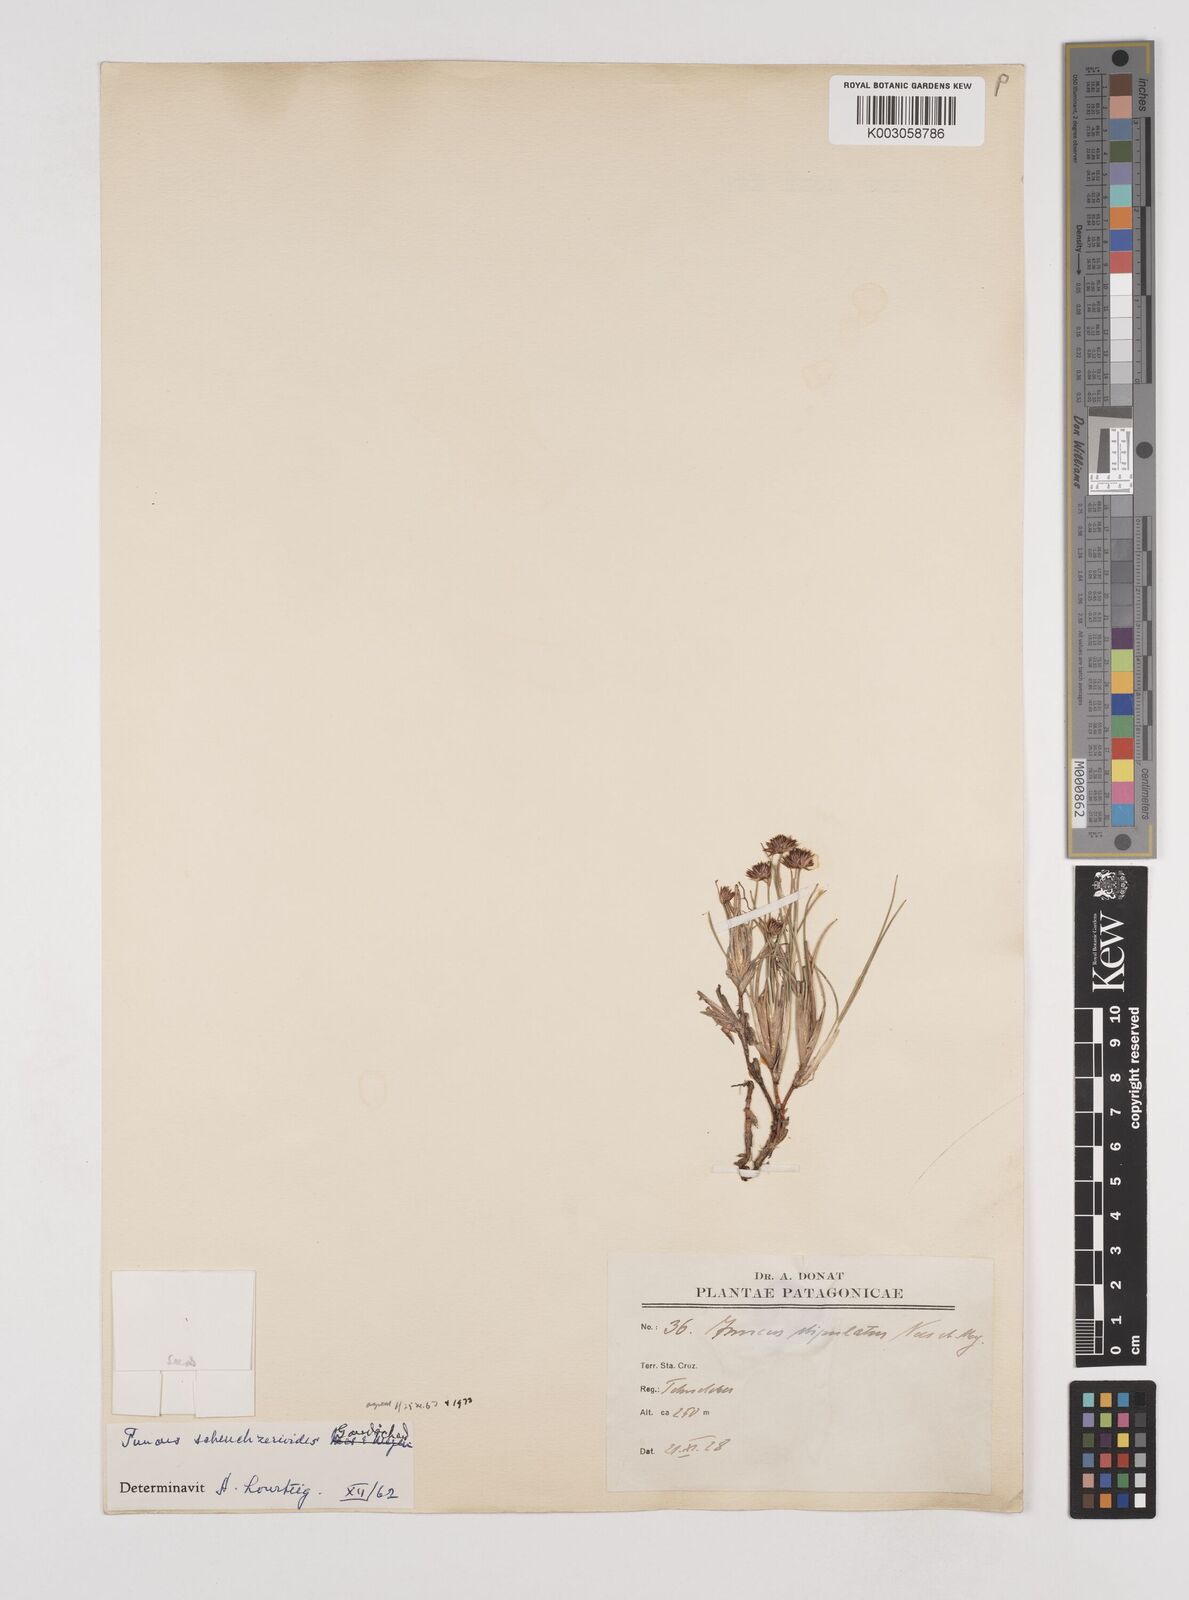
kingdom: Plantae
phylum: Tracheophyta
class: Liliopsida
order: Poales
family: Juncaceae
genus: Juncus
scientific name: Juncus scheuchzerioides
